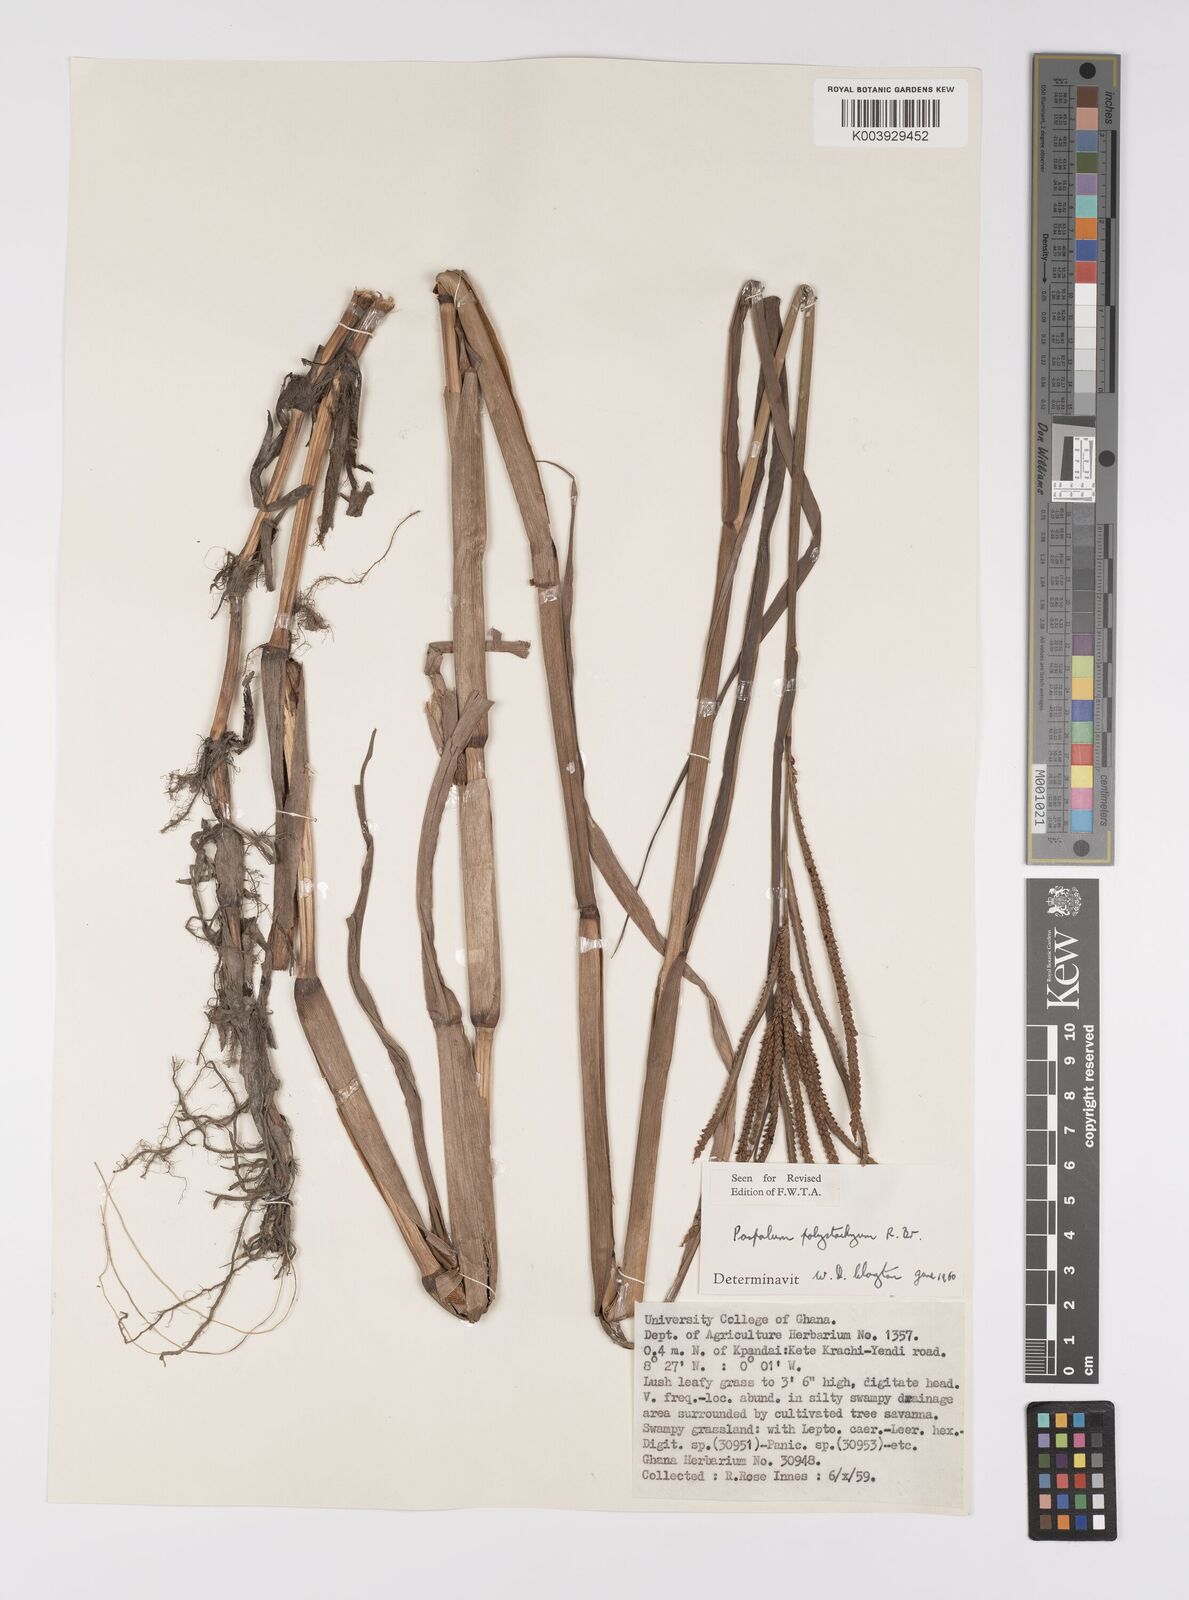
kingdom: Plantae
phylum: Tracheophyta
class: Liliopsida
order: Poales
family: Poaceae
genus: Paspalum
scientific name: Paspalum scrobiculatum
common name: Kodo millet
